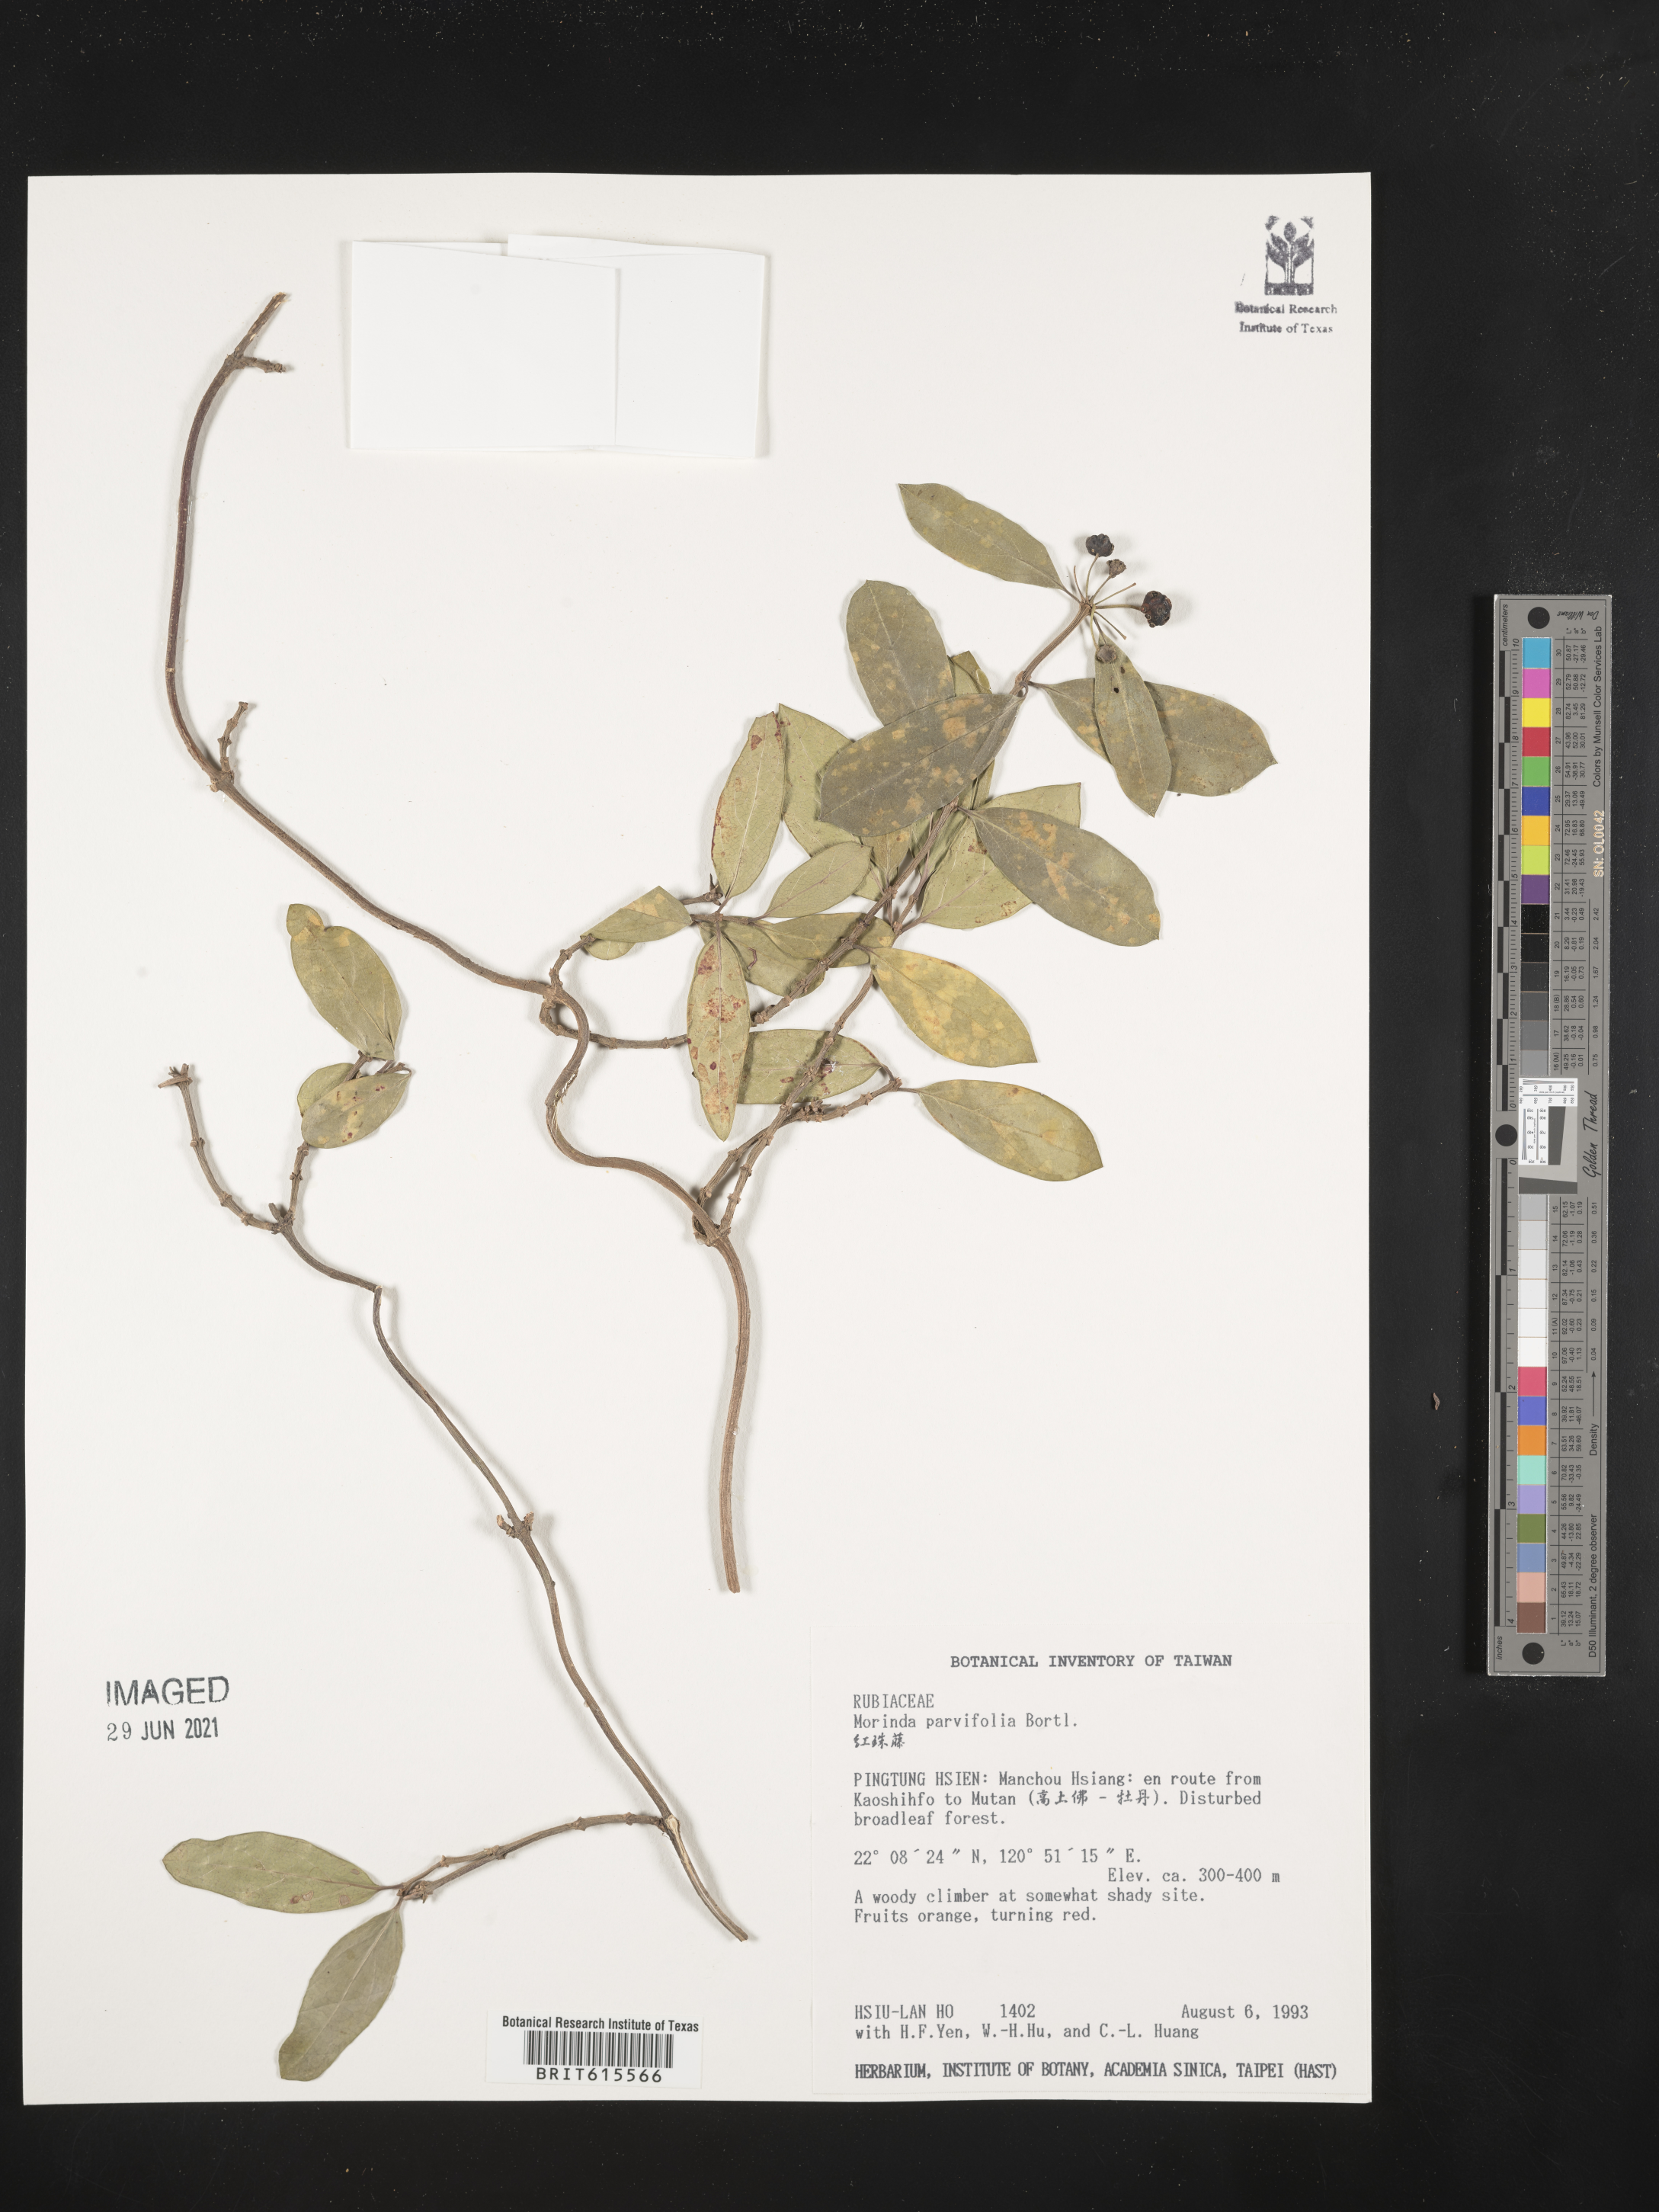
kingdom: Plantae
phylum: Tracheophyta
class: Magnoliopsida
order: Gentianales
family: Rubiaceae
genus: Gynochthodes
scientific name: Gynochthodes parvifolia
